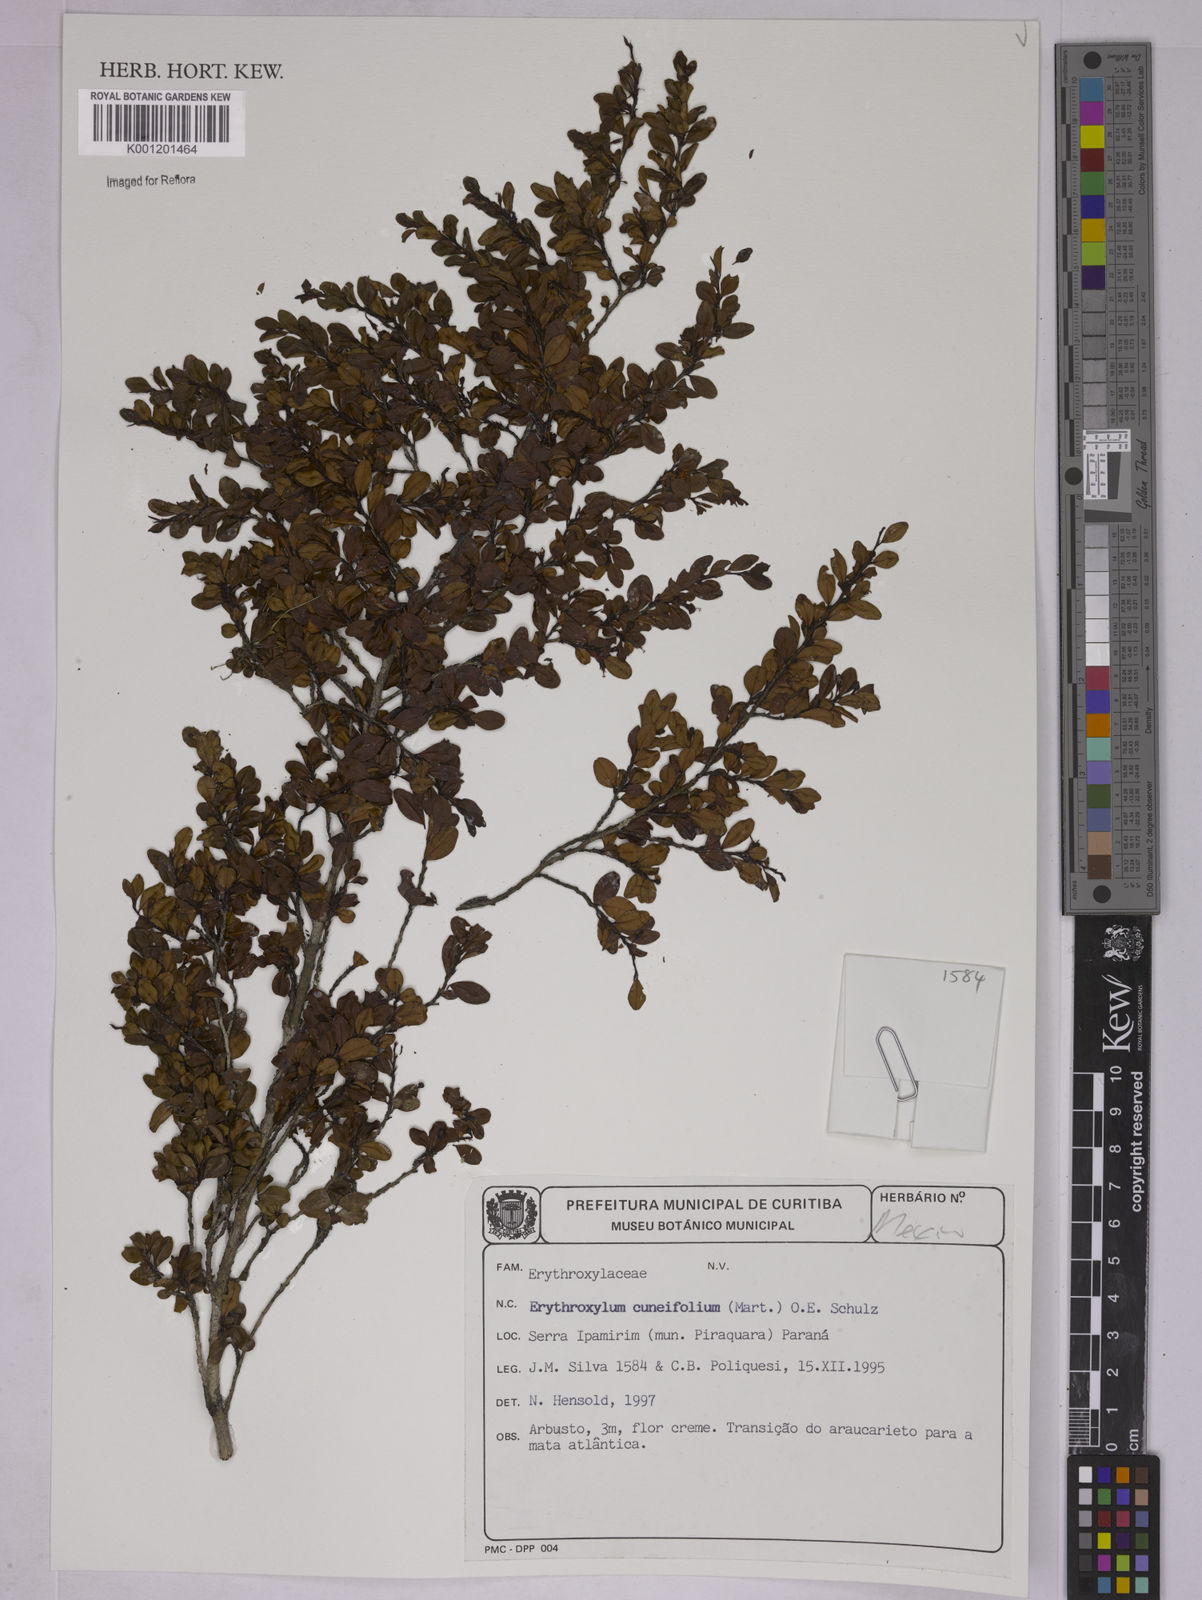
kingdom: Plantae
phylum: Tracheophyta
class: Magnoliopsida
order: Malpighiales
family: Erythroxylaceae
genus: Erythroxylum
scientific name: Erythroxylum cuneifolium
